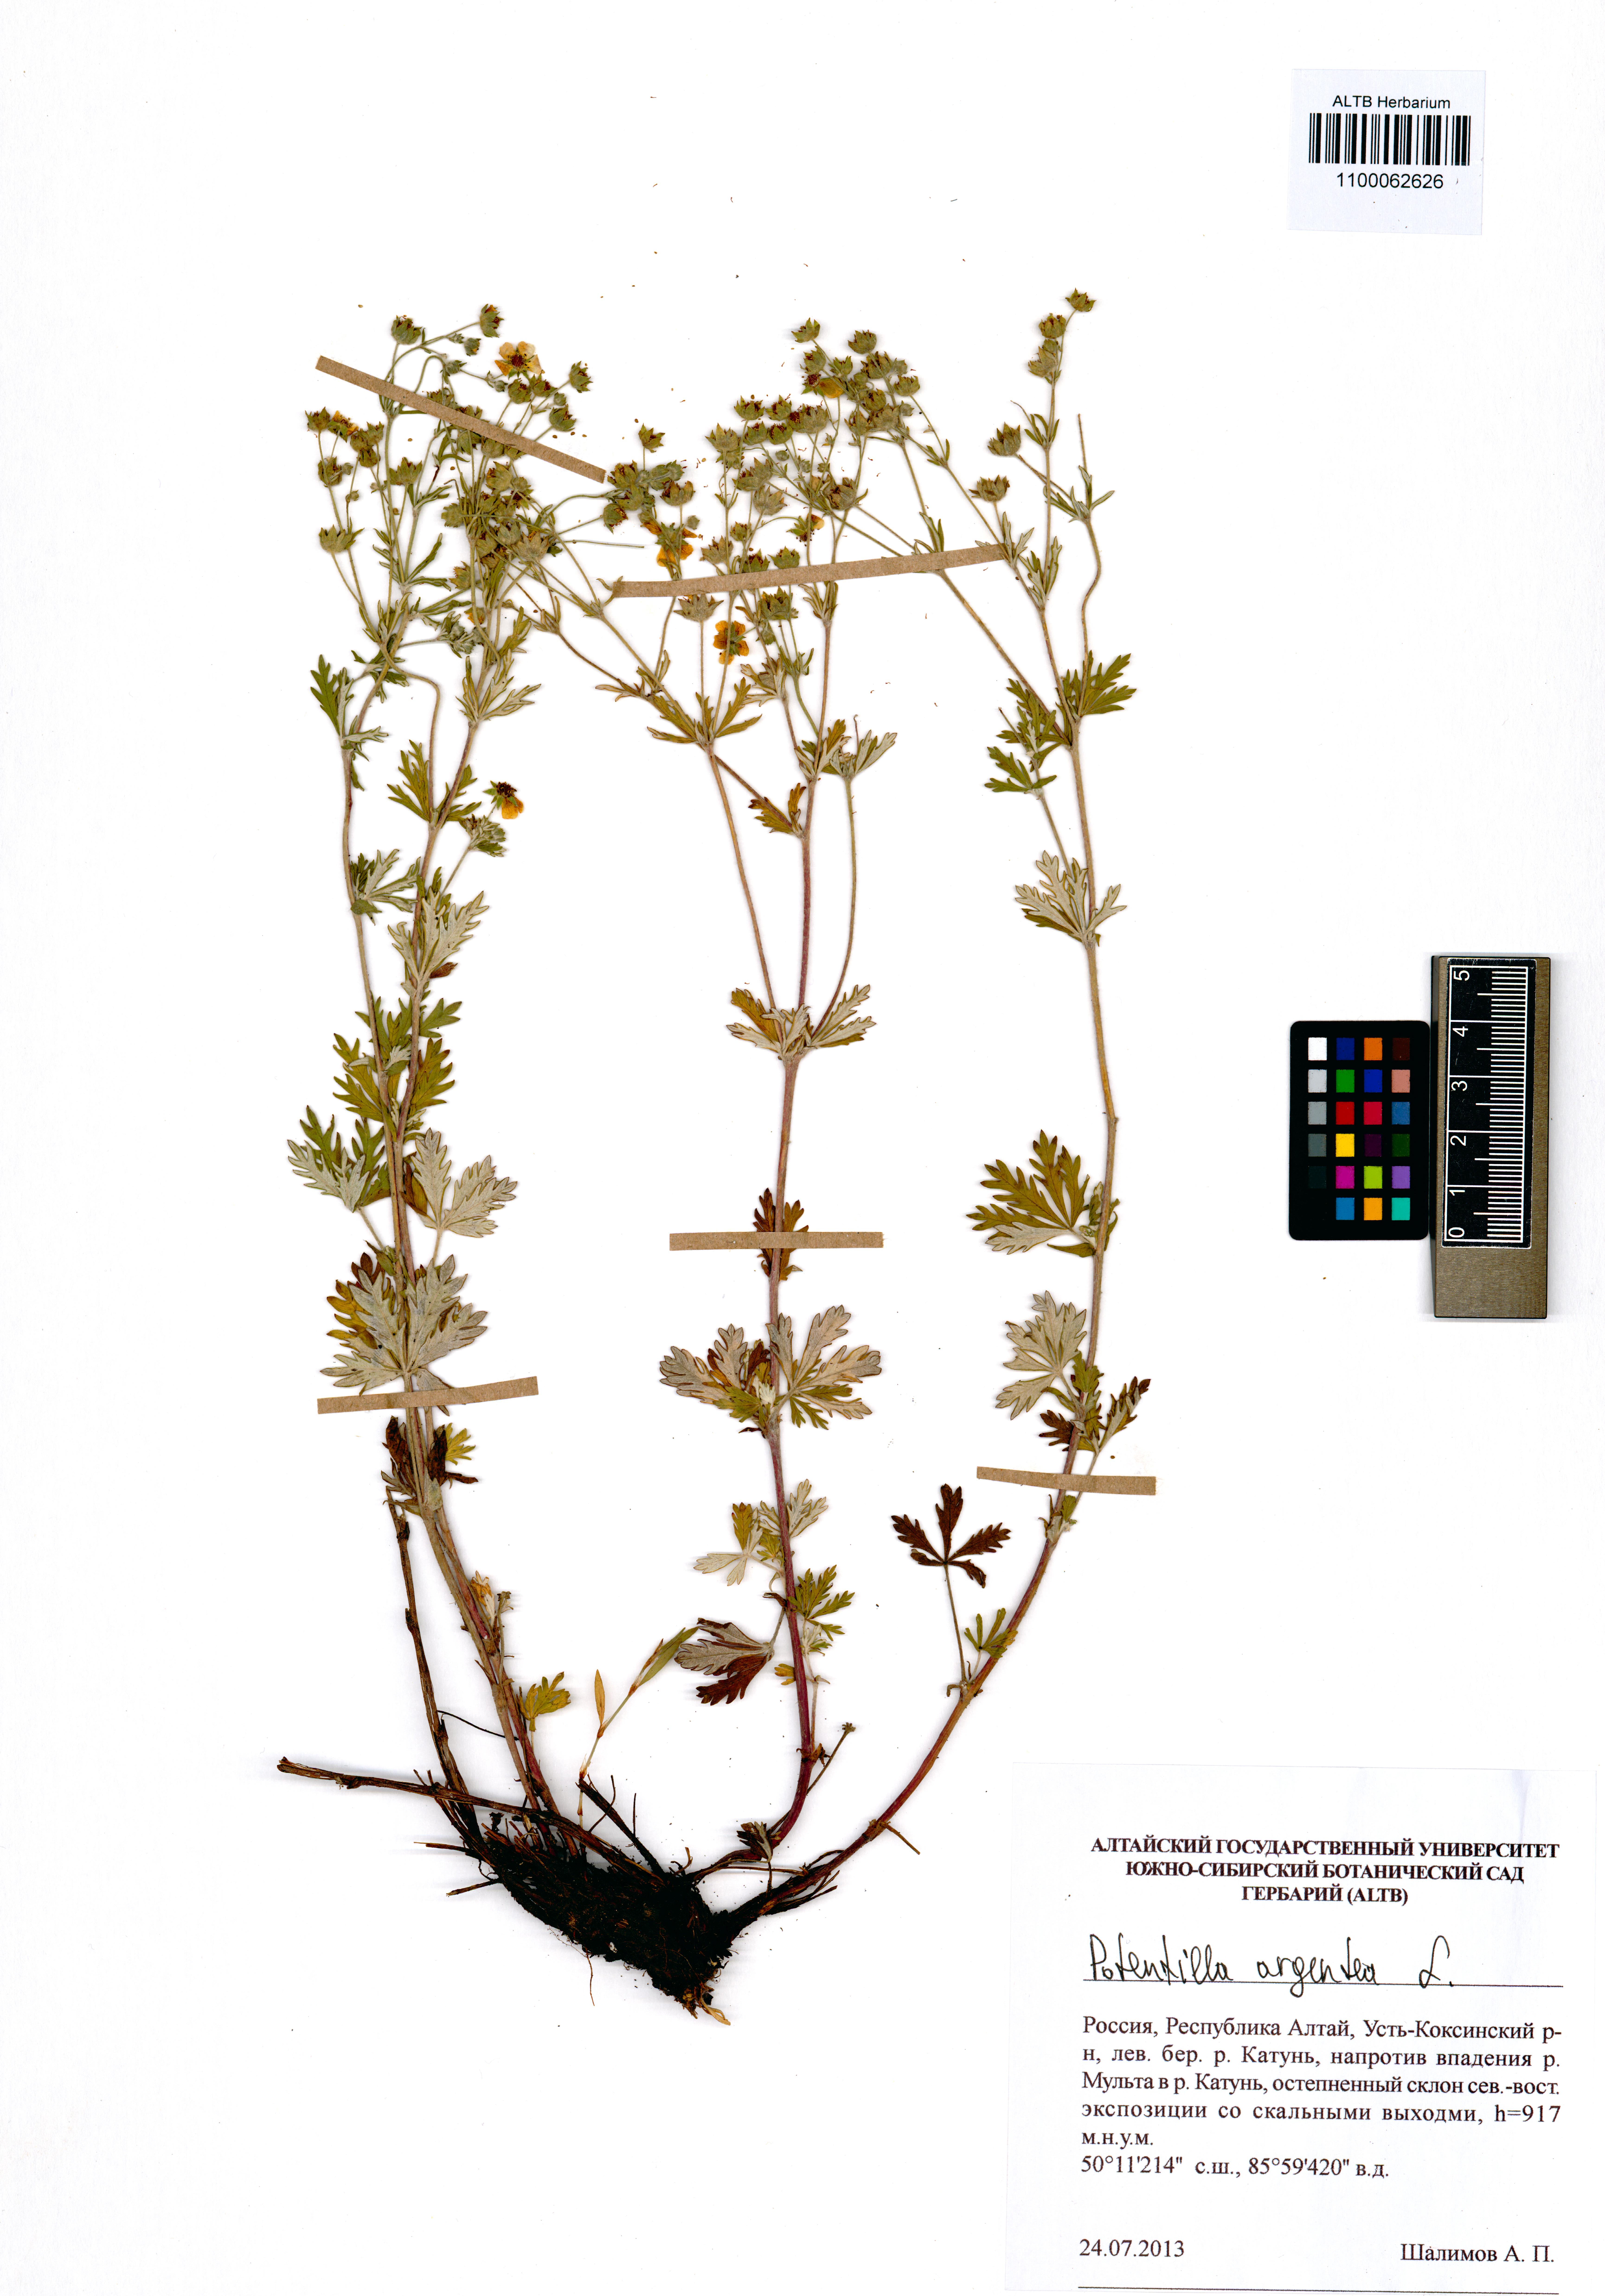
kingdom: Plantae
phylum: Tracheophyta
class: Magnoliopsida
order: Rosales
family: Rosaceae
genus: Potentilla
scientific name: Potentilla argentea
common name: Hoary cinquefoil
